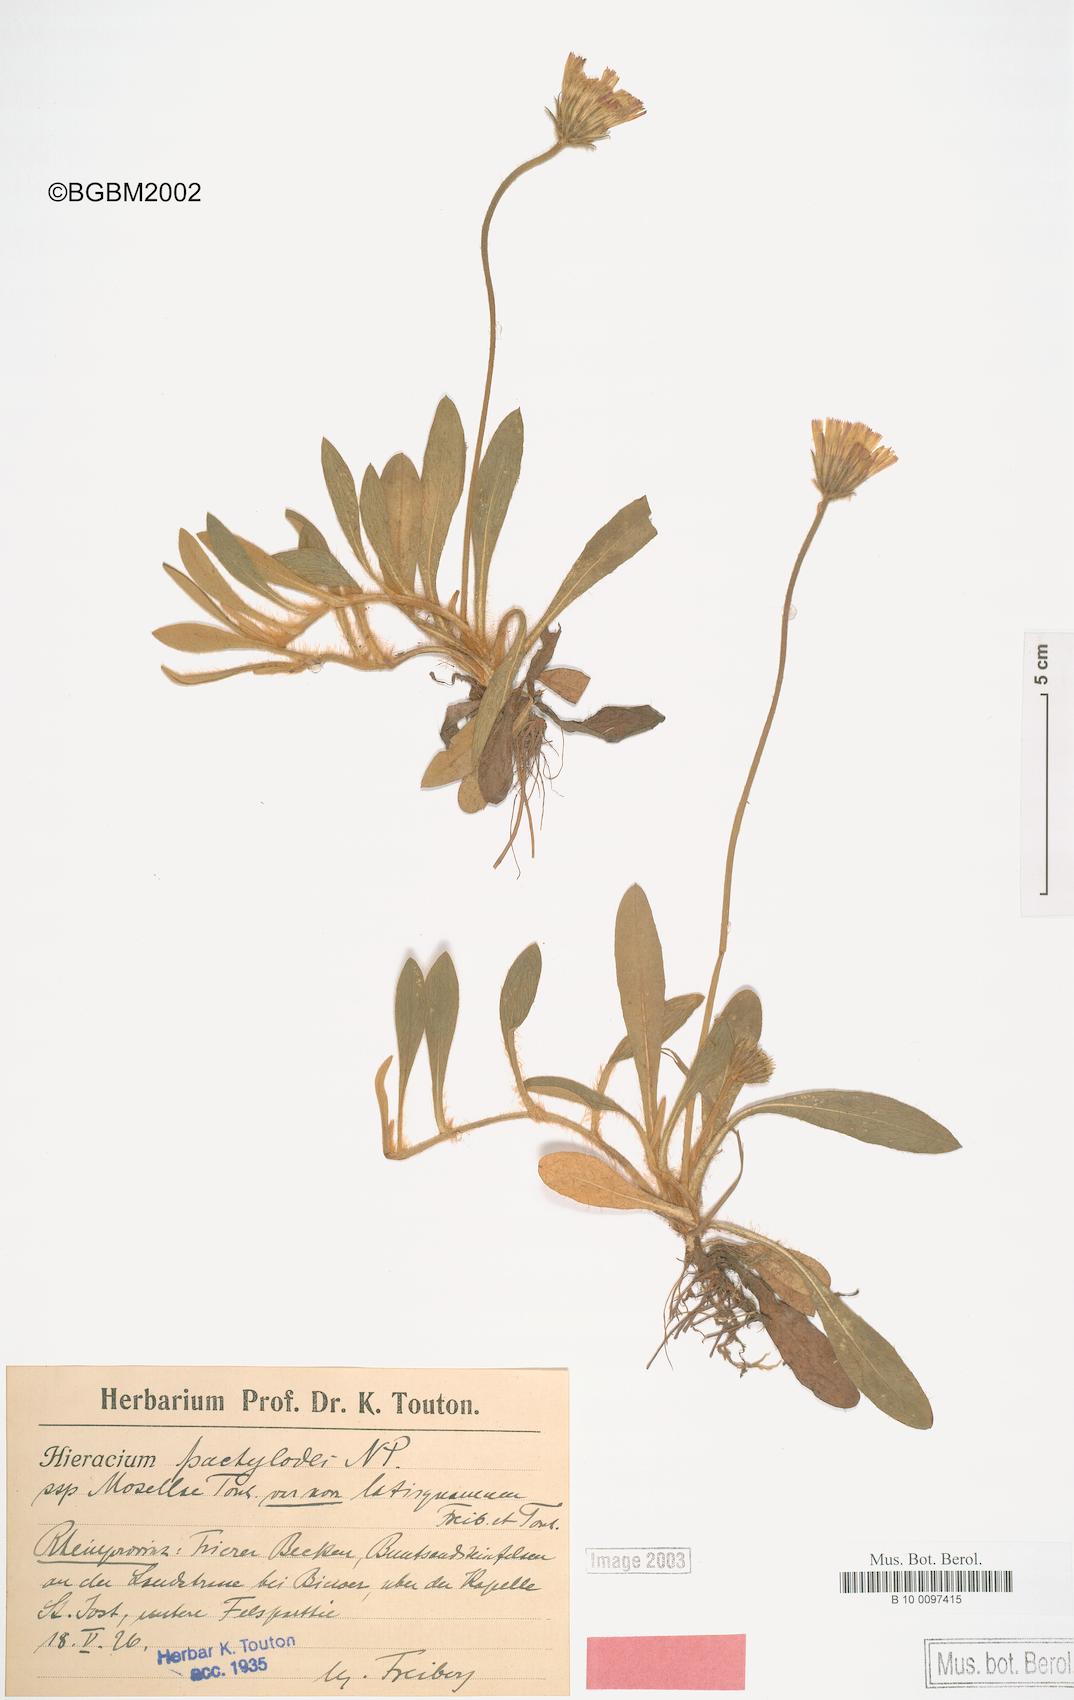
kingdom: Plantae
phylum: Tracheophyta
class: Magnoliopsida
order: Asterales
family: Asteraceae
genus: Pilosella
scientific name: Pilosella longisquama
